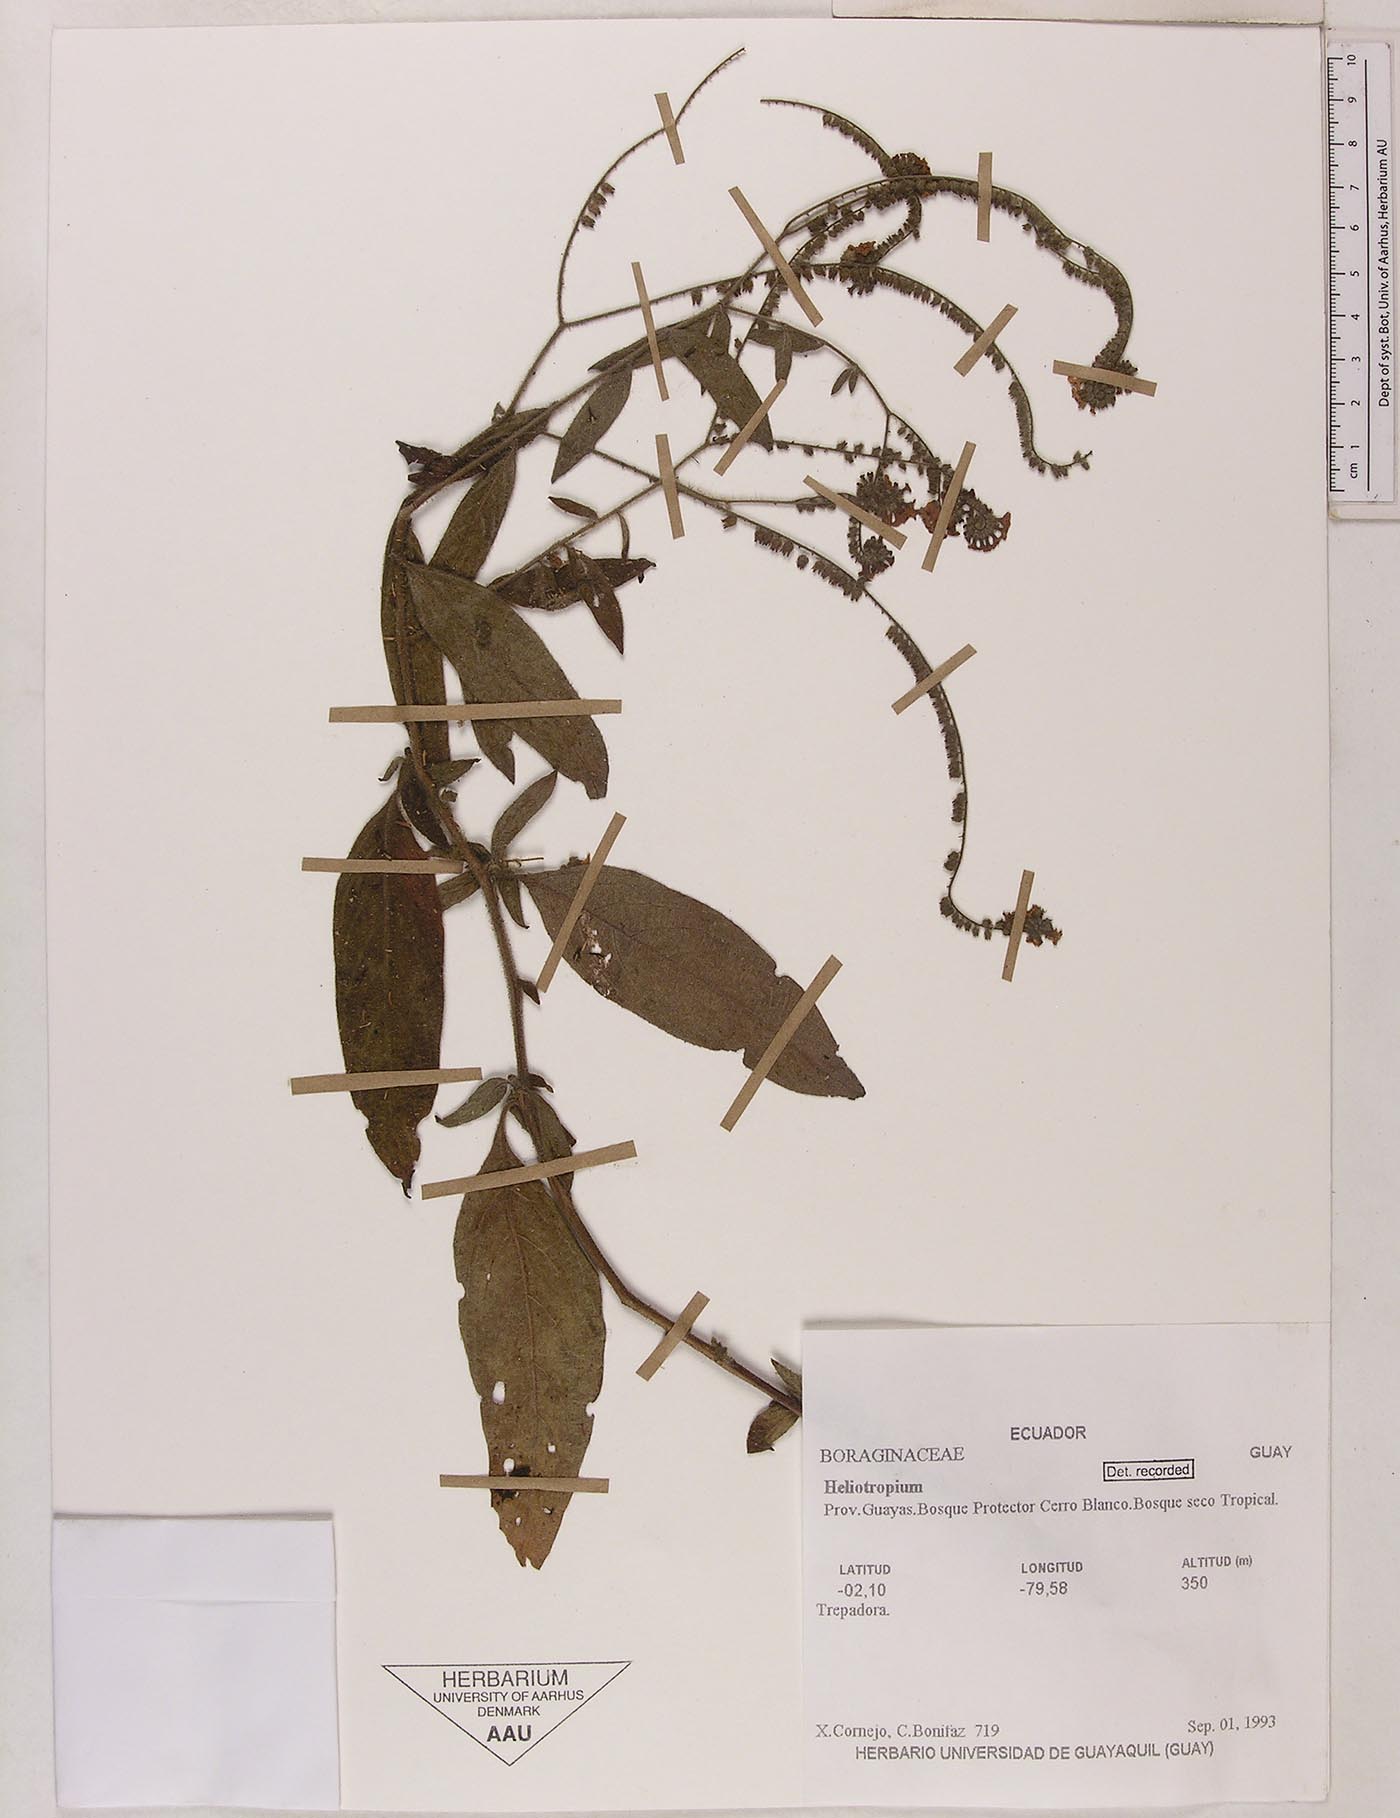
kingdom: Plantae
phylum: Tracheophyta
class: Magnoliopsida
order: Boraginales
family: Heliotropiaceae
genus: Heliotropium
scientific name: Heliotropium rufipilum
